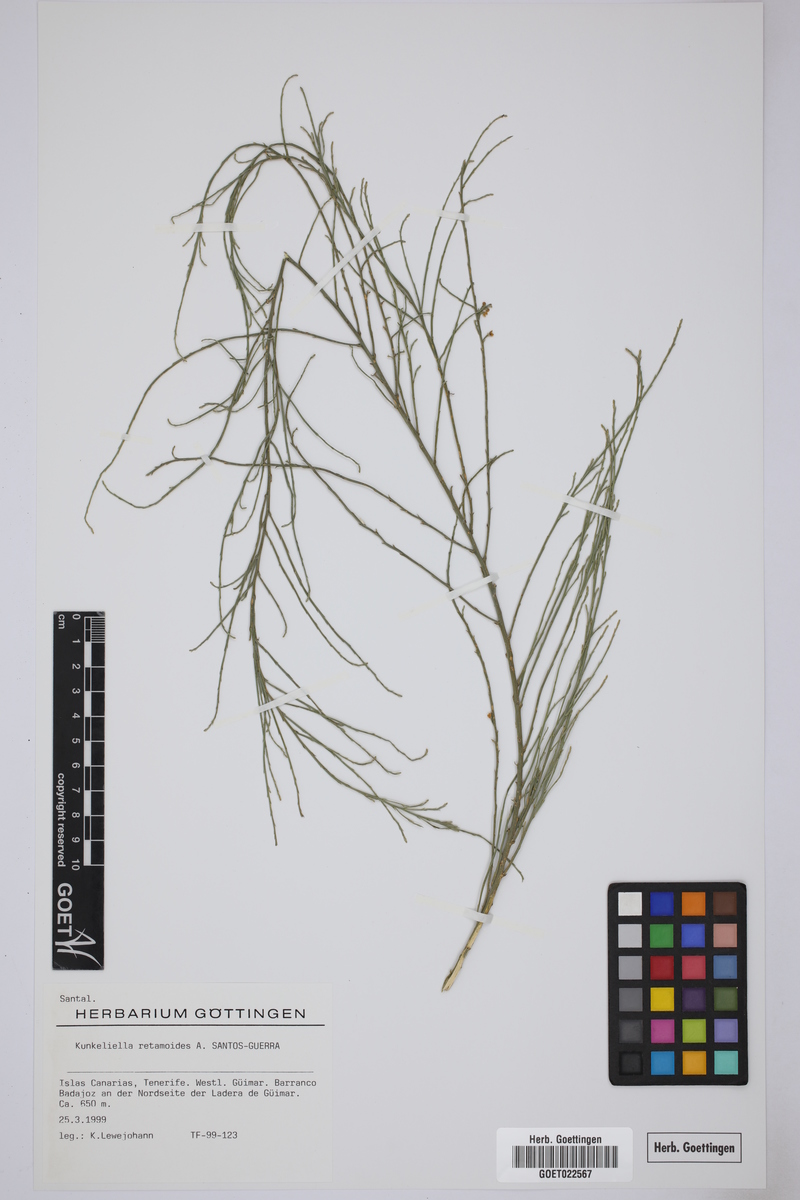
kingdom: Plantae
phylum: Tracheophyta
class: Magnoliopsida
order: Santalales
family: Thesiaceae
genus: Thesium
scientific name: Thesium retamoides
